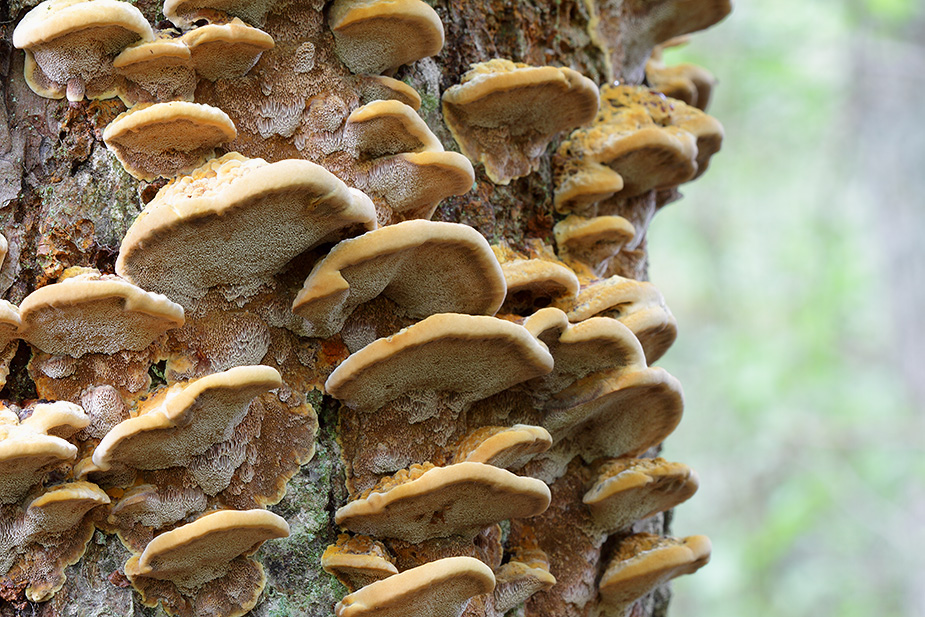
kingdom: Fungi
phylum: Basidiomycota
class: Agaricomycetes
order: Hymenochaetales
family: Hymenochaetaceae
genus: Xanthoporia
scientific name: Xanthoporia radiata
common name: elle-spejlporesvamp
